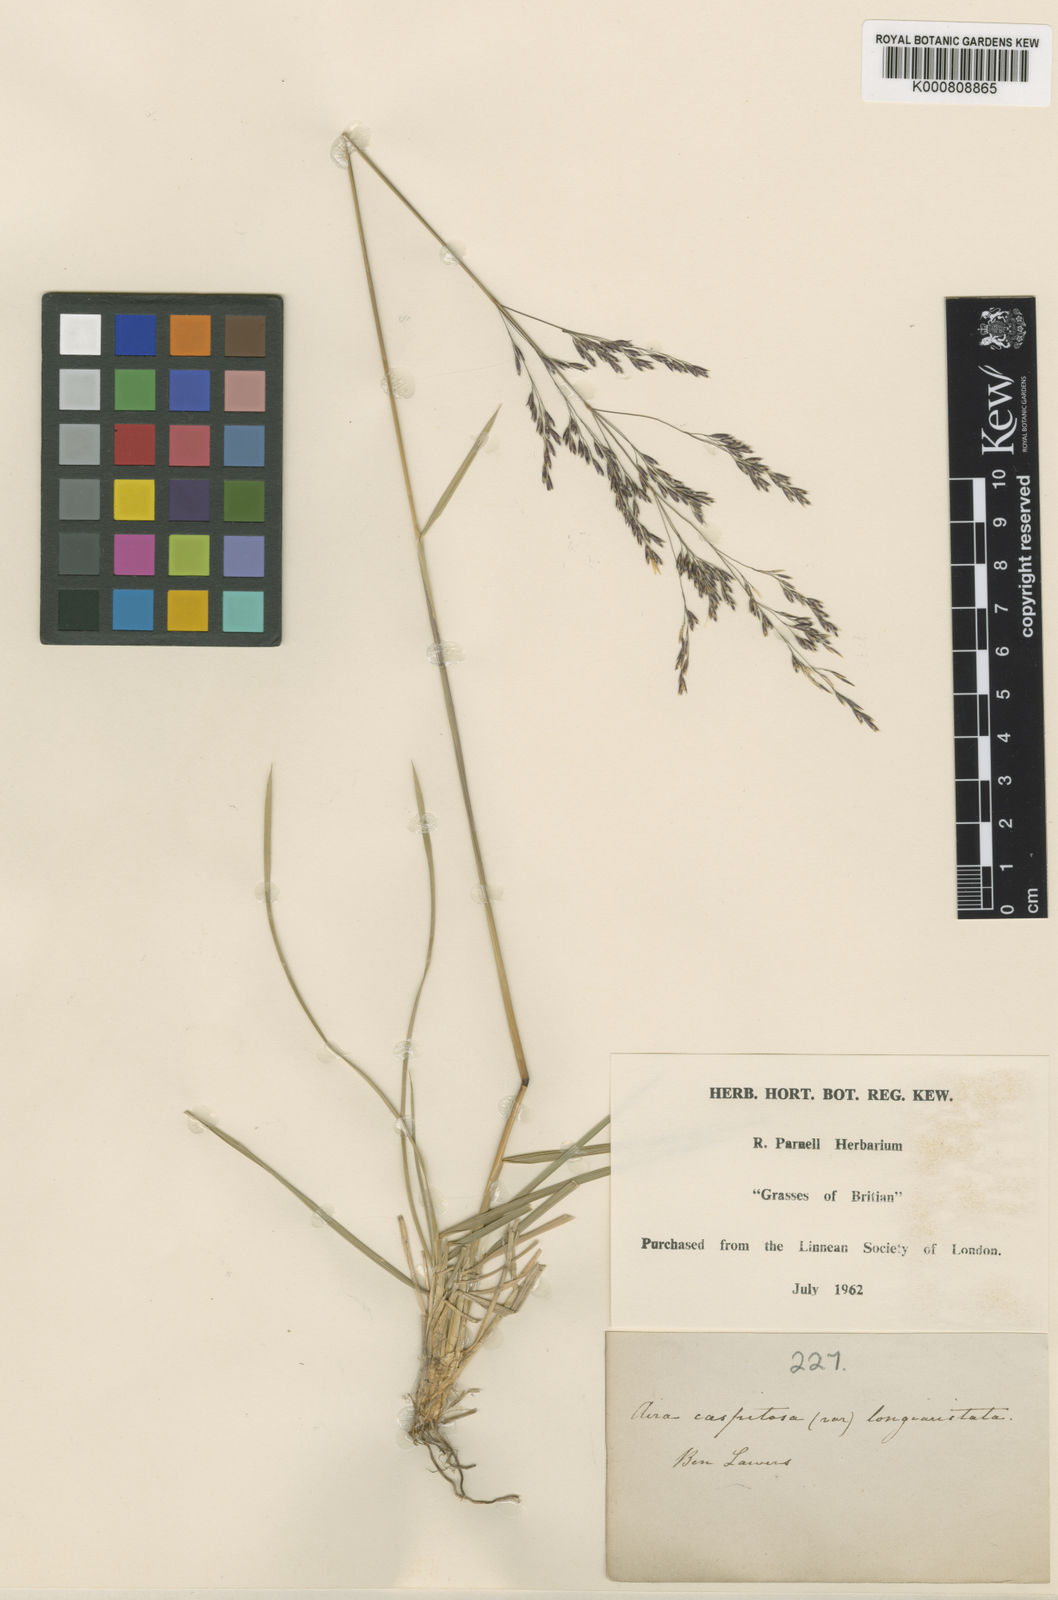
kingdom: Plantae
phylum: Tracheophyta
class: Liliopsida
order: Poales
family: Poaceae
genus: Deschampsia
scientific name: Deschampsia cespitosa
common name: Tufted hair-grass
